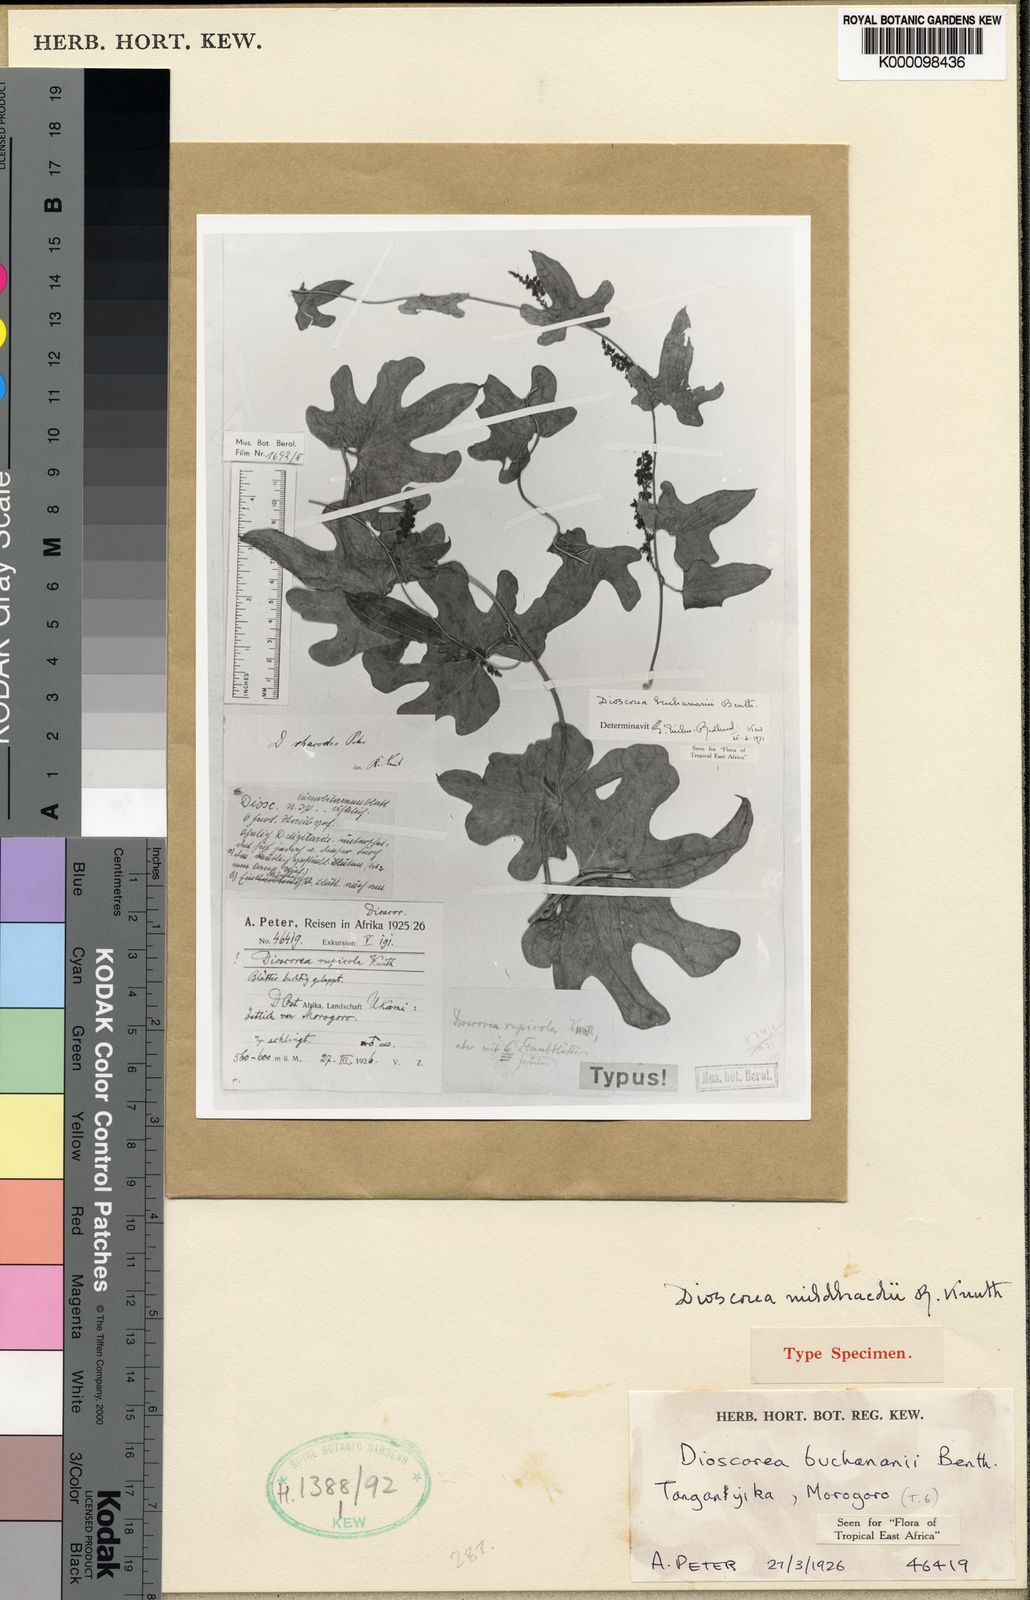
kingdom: Plantae
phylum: Tracheophyta
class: Liliopsida
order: Dioscoreales
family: Dioscoreaceae
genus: Dioscorea
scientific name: Dioscorea buchananii
